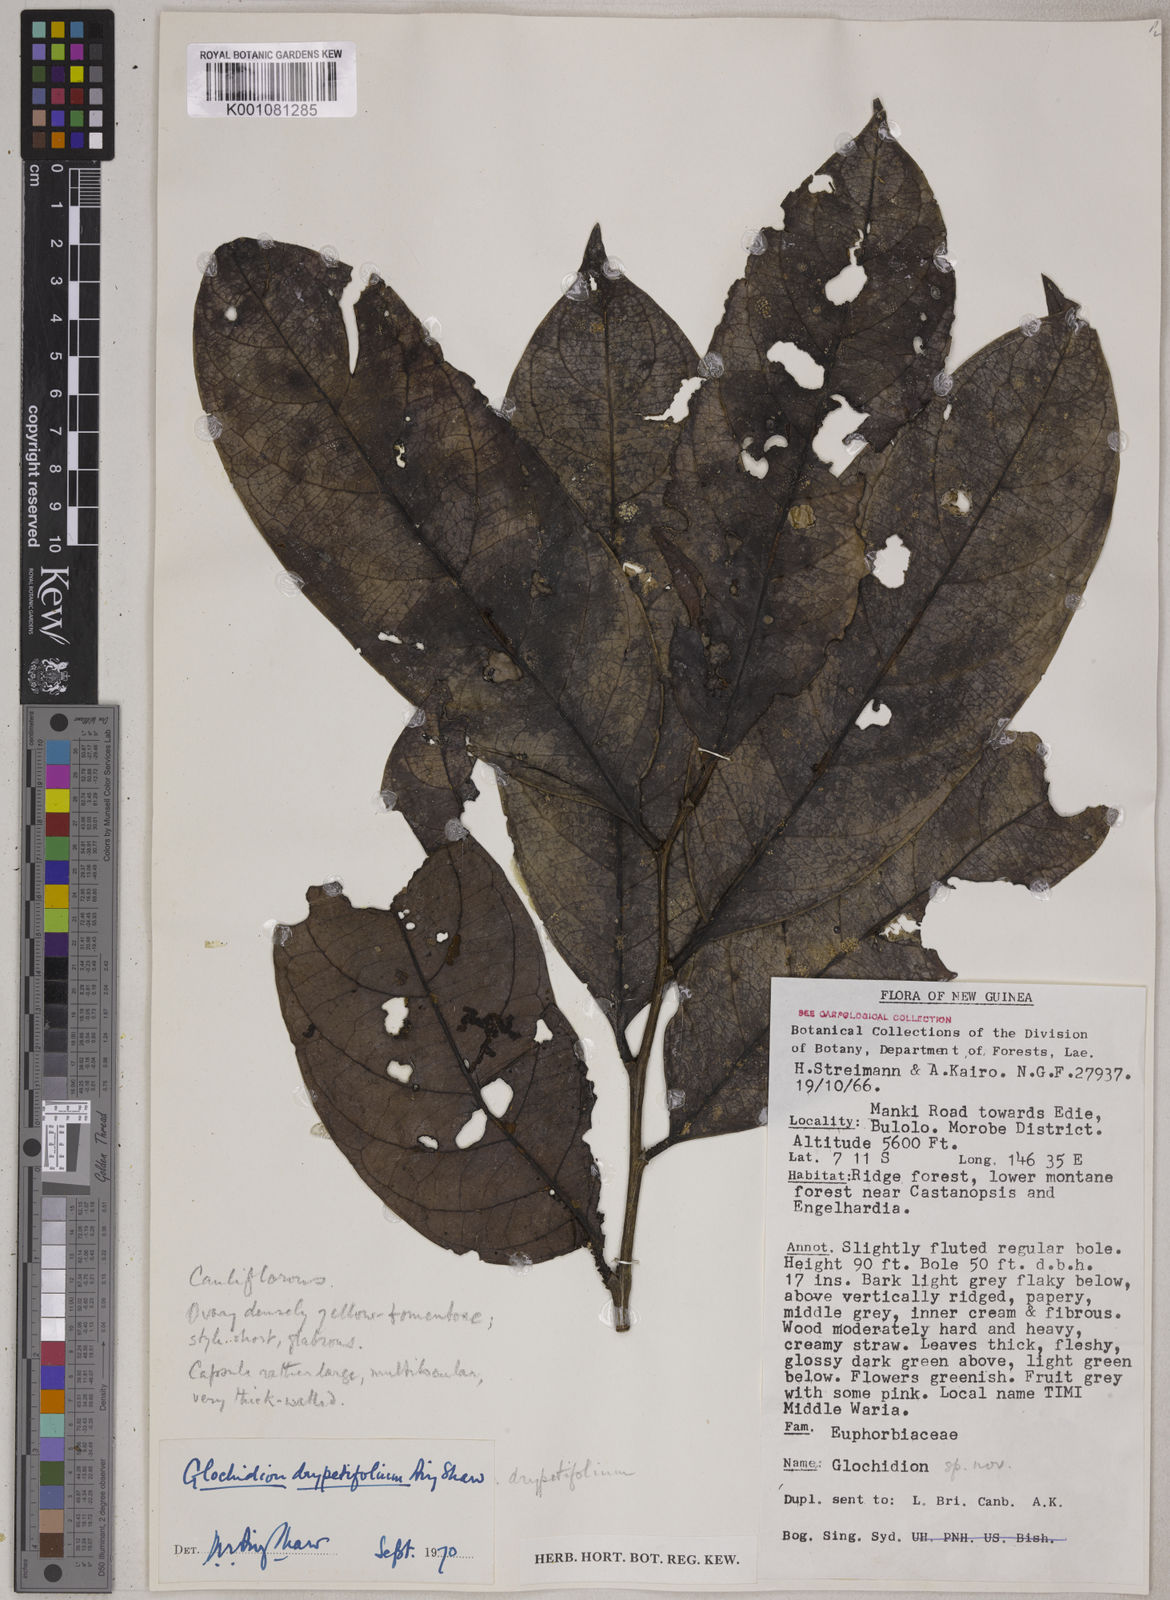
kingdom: Plantae
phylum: Tracheophyta
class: Magnoliopsida
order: Malpighiales
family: Phyllanthaceae
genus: Glochidion
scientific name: Glochidion drypetifolium
